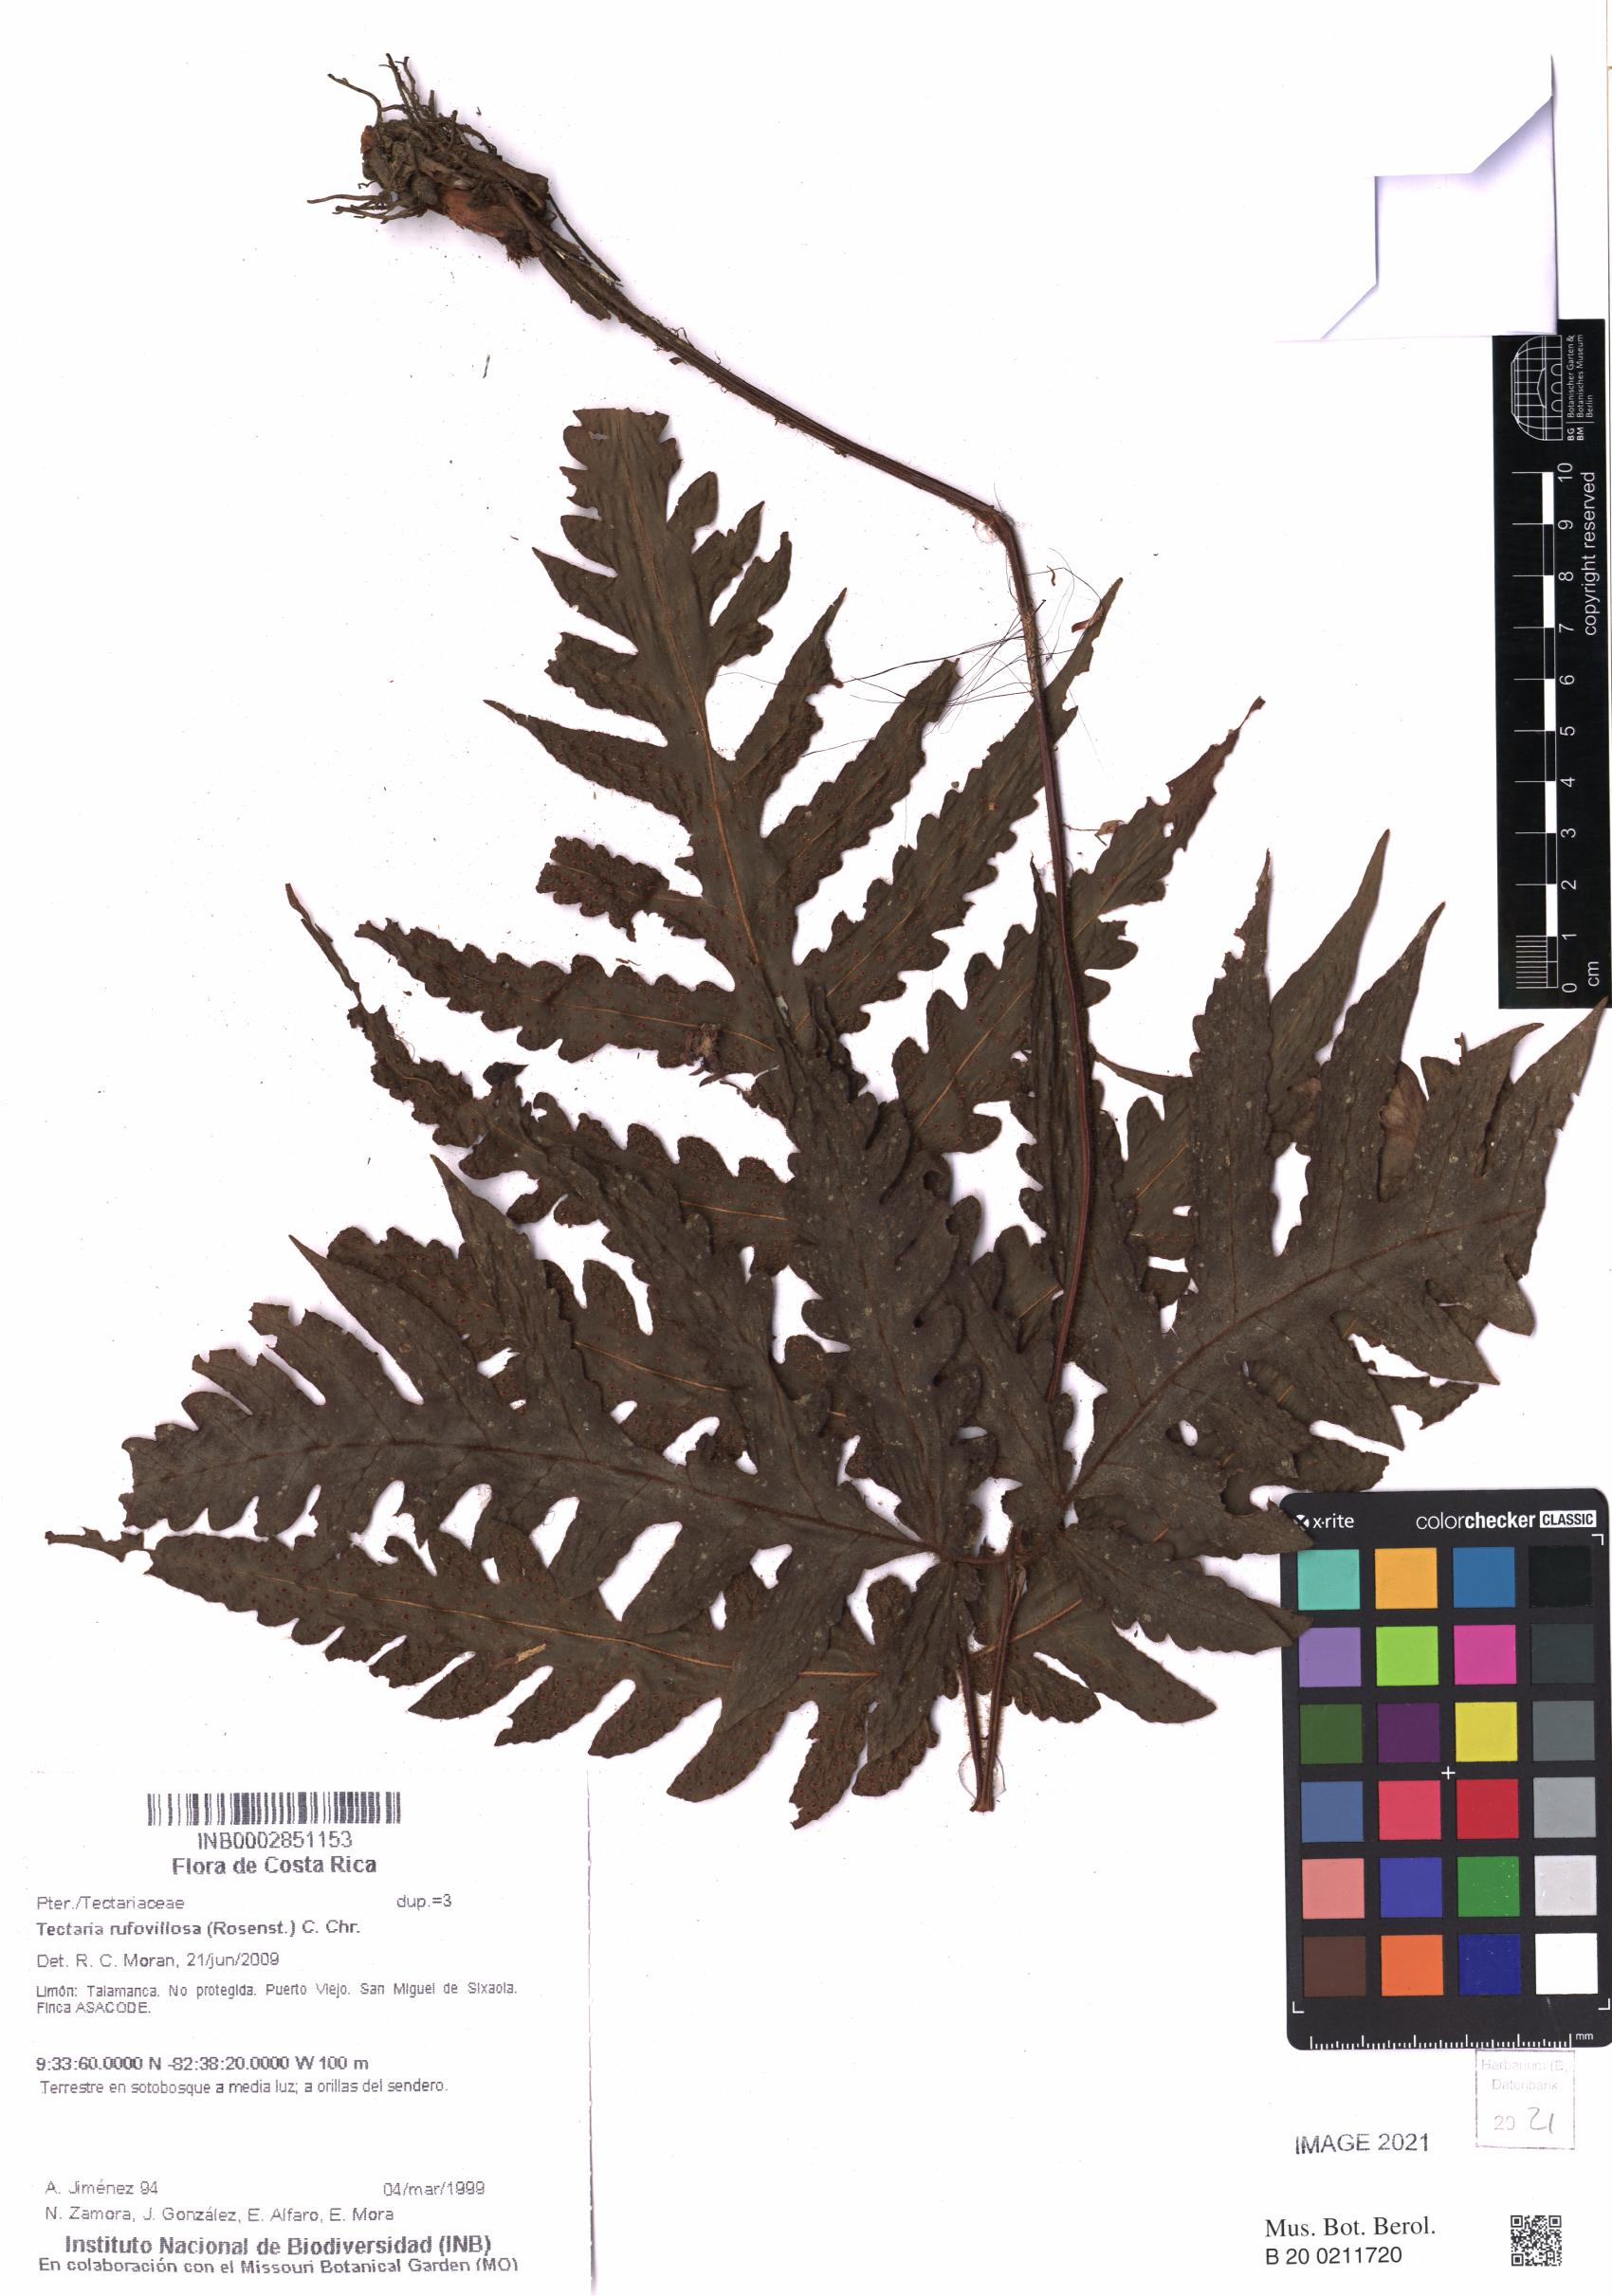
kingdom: Plantae
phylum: Tracheophyta
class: Polypodiopsida
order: Polypodiales
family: Tectariaceae
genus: Tectaria
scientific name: Tectaria rufovillosa
